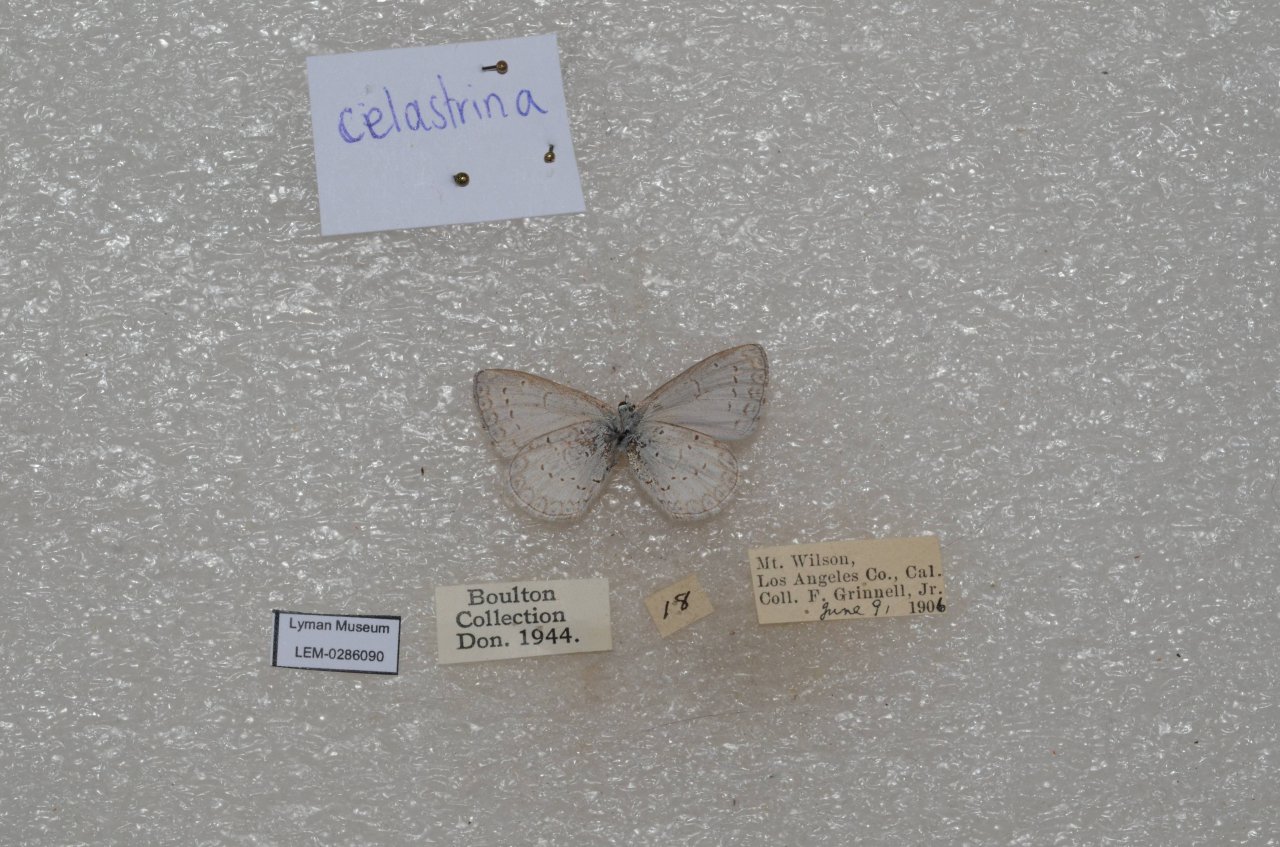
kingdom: Animalia
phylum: Arthropoda
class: Insecta
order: Lepidoptera
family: Lycaenidae
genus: Celastrina
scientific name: Celastrina ladon
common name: Echo Azure
